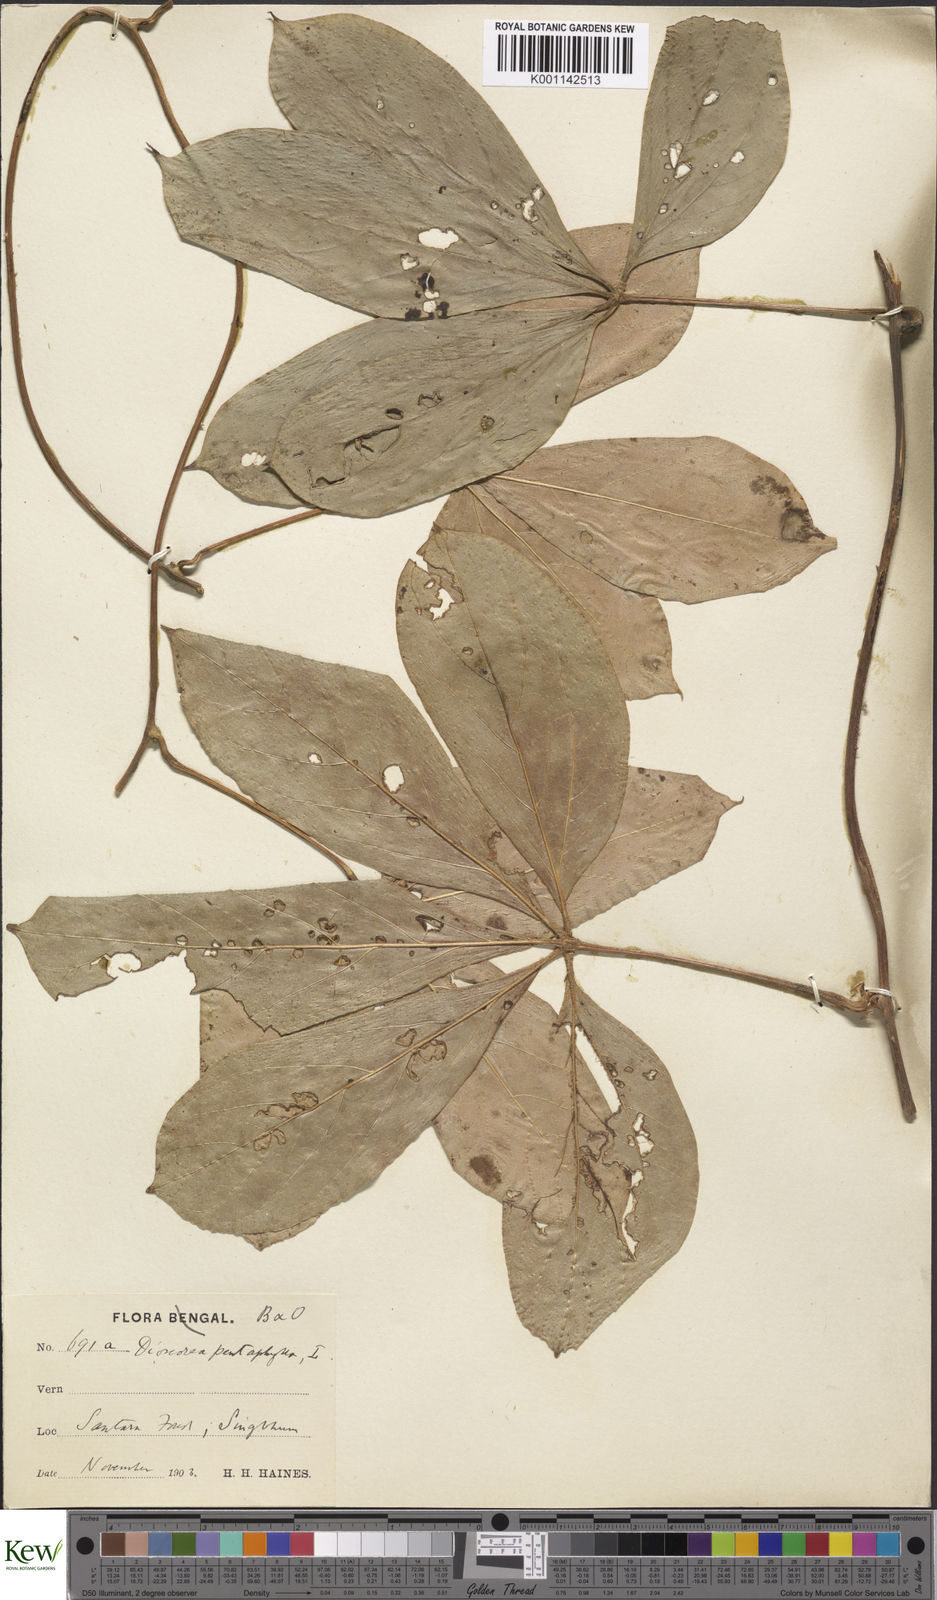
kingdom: Plantae
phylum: Tracheophyta
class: Liliopsida
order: Dioscoreales
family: Dioscoreaceae
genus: Dioscorea
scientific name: Dioscorea pentaphylla
